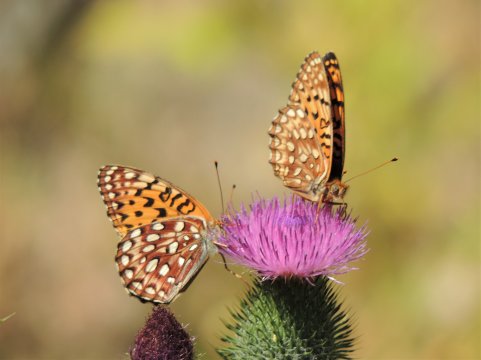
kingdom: Animalia
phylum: Arthropoda
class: Insecta
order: Lepidoptera
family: Nymphalidae
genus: Speyeria
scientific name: Speyeria mormonia
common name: Mormon Fritillary
